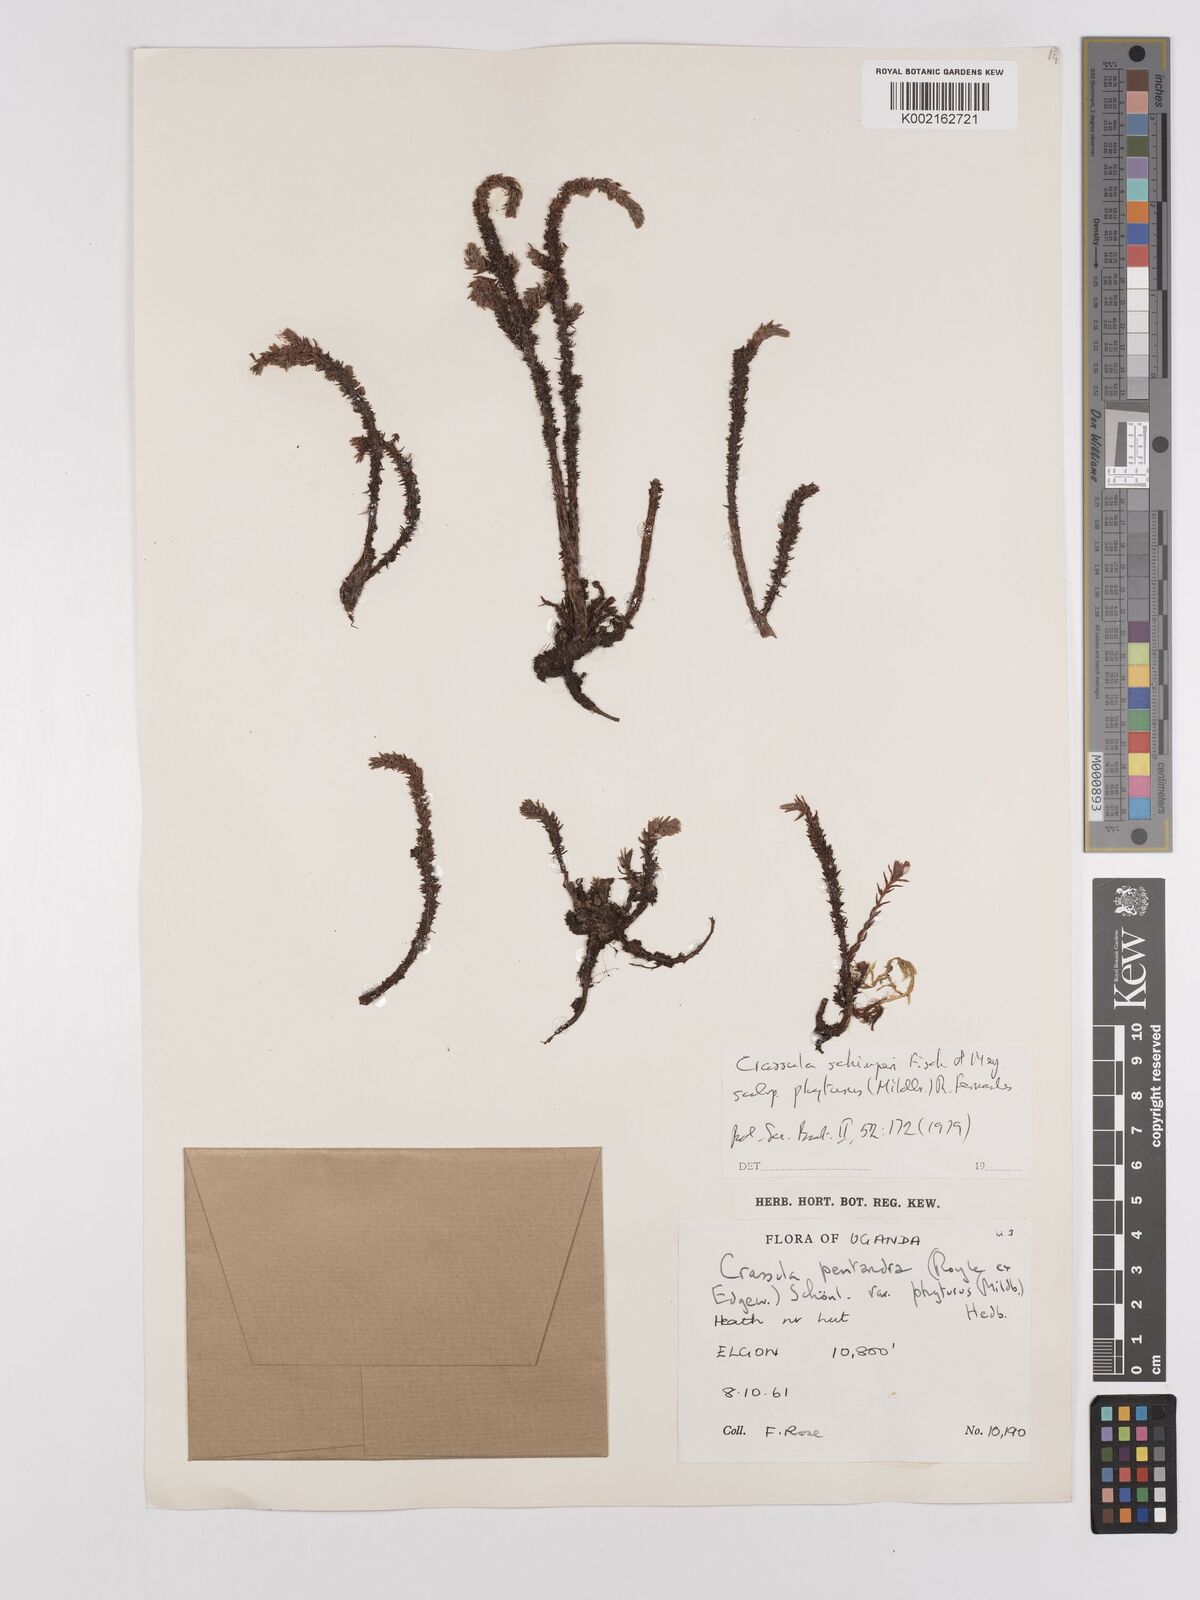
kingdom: Plantae
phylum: Tracheophyta
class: Magnoliopsida
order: Saxifragales
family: Crassulaceae
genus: Crassula
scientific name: Crassula schimperi
